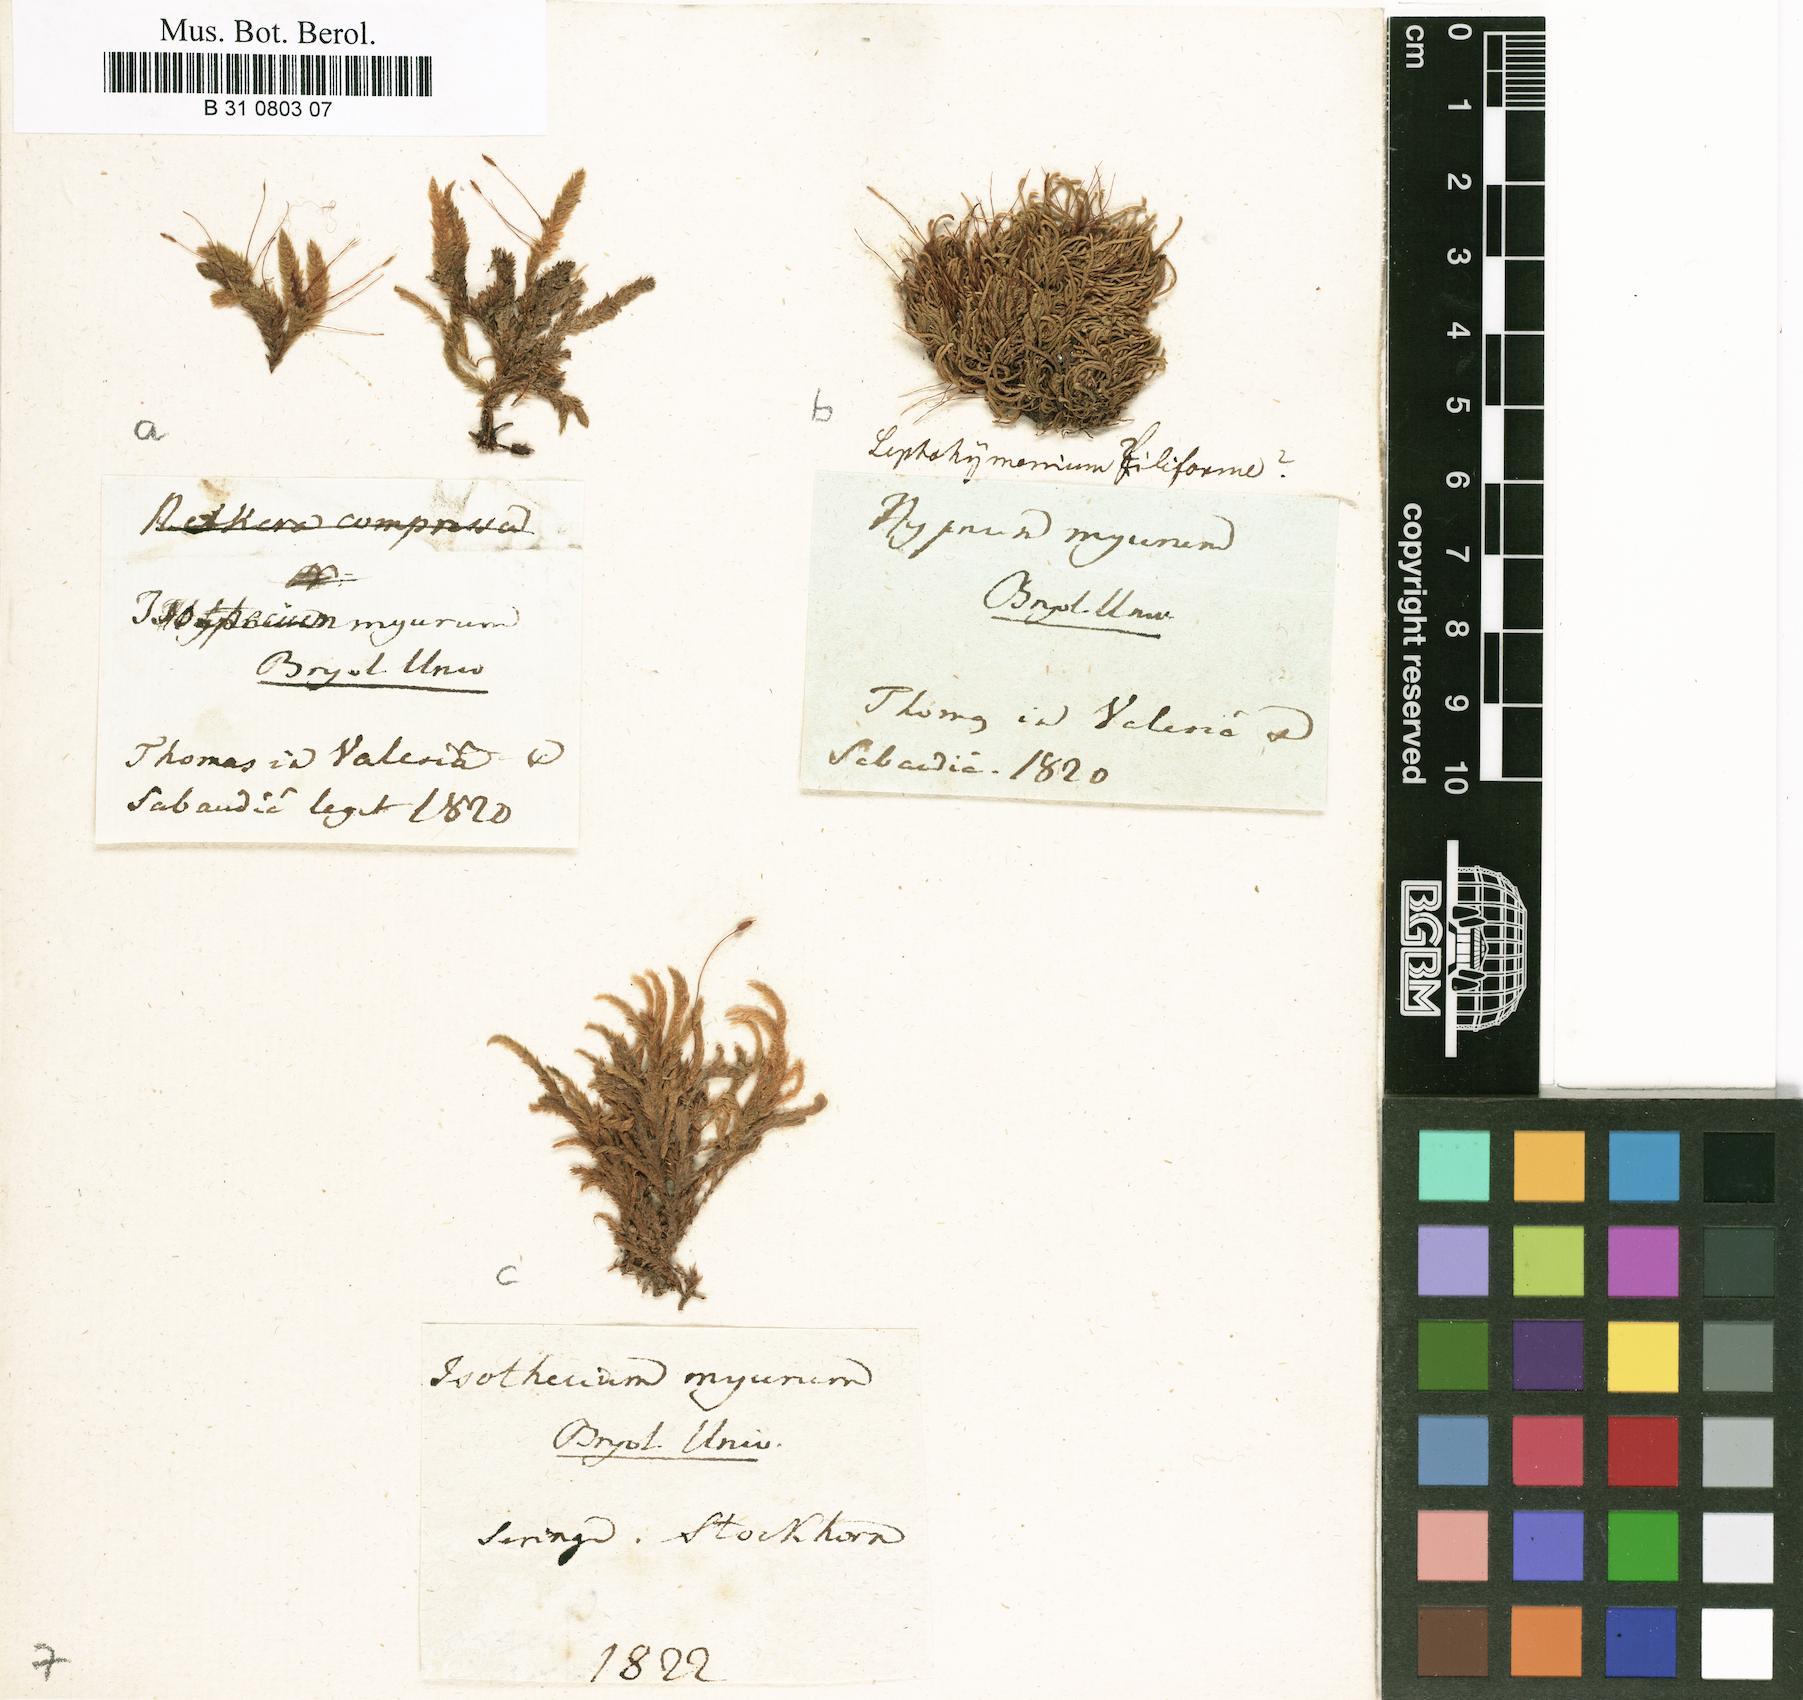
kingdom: Plantae
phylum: Bryophyta
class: Bryopsida
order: Hypnales
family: Lembophyllaceae
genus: Isothecium
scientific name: Isothecium alopecuroides
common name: Larger mouse-tail moss
